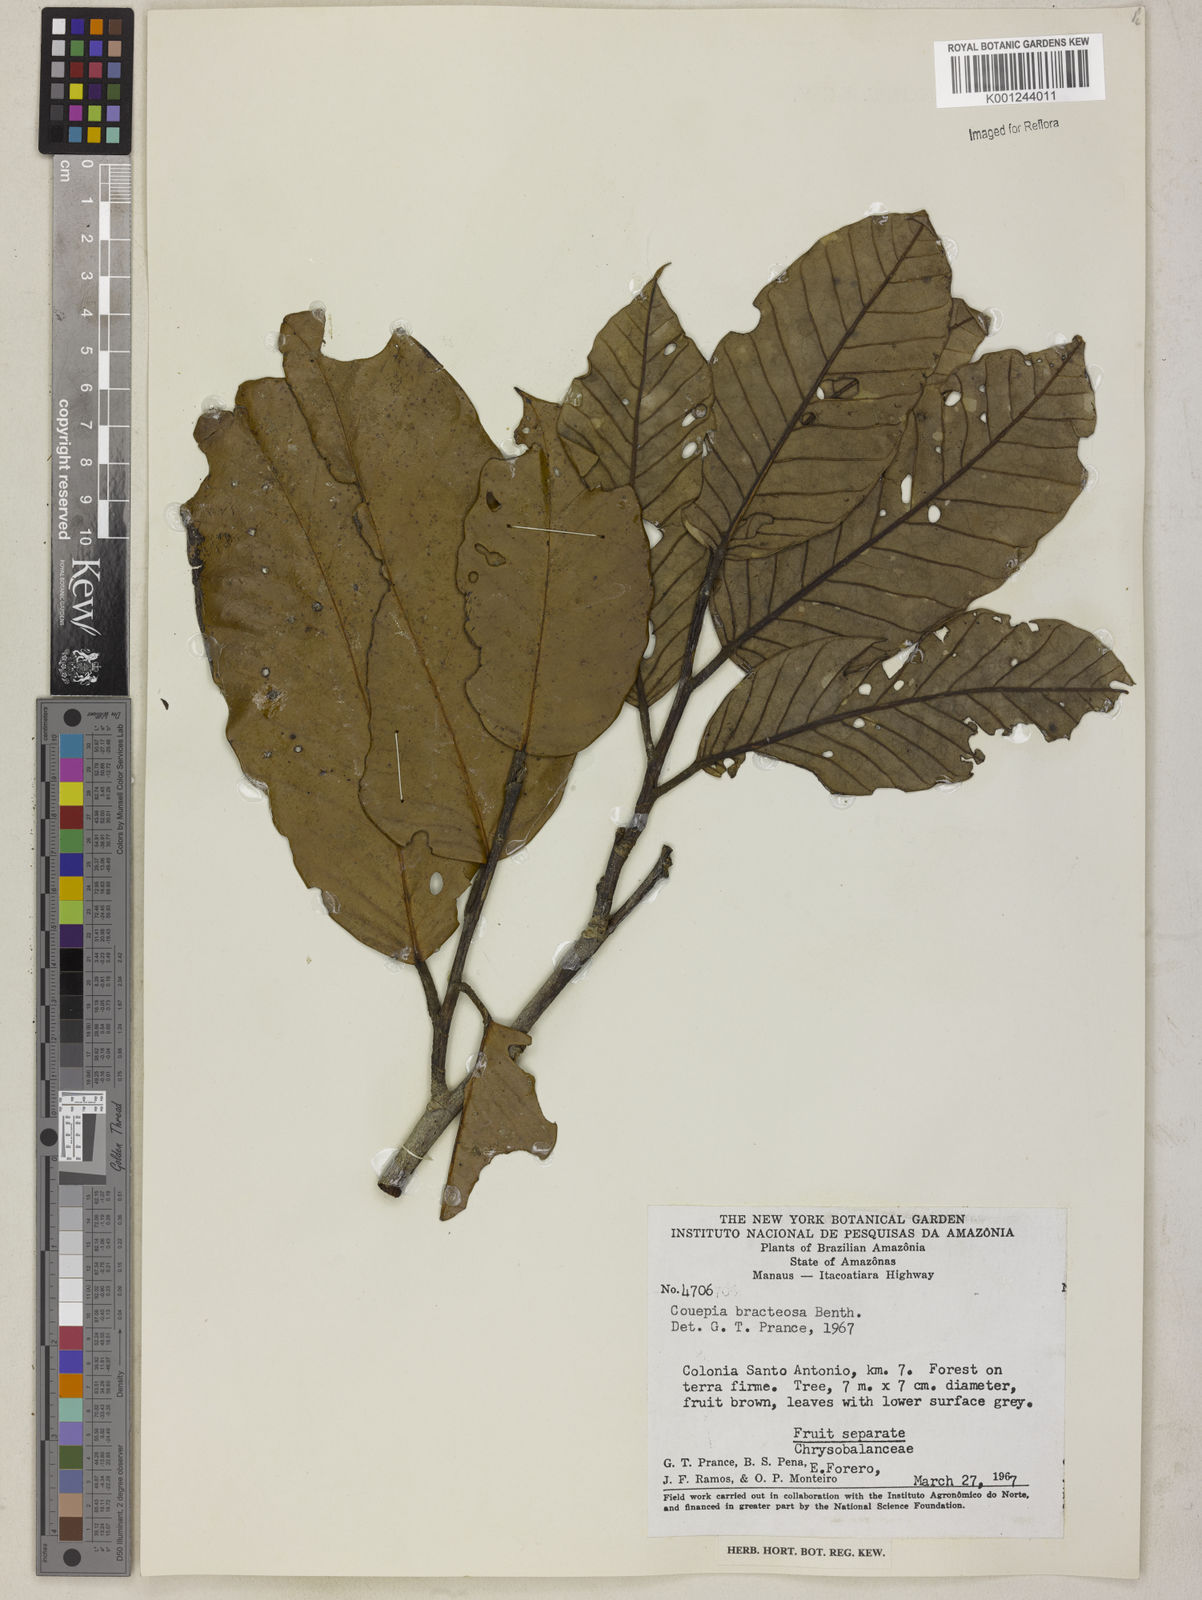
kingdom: Plantae
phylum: Tracheophyta
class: Magnoliopsida
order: Malpighiales
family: Chrysobalanaceae
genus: Couepia
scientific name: Couepia bracteosa
